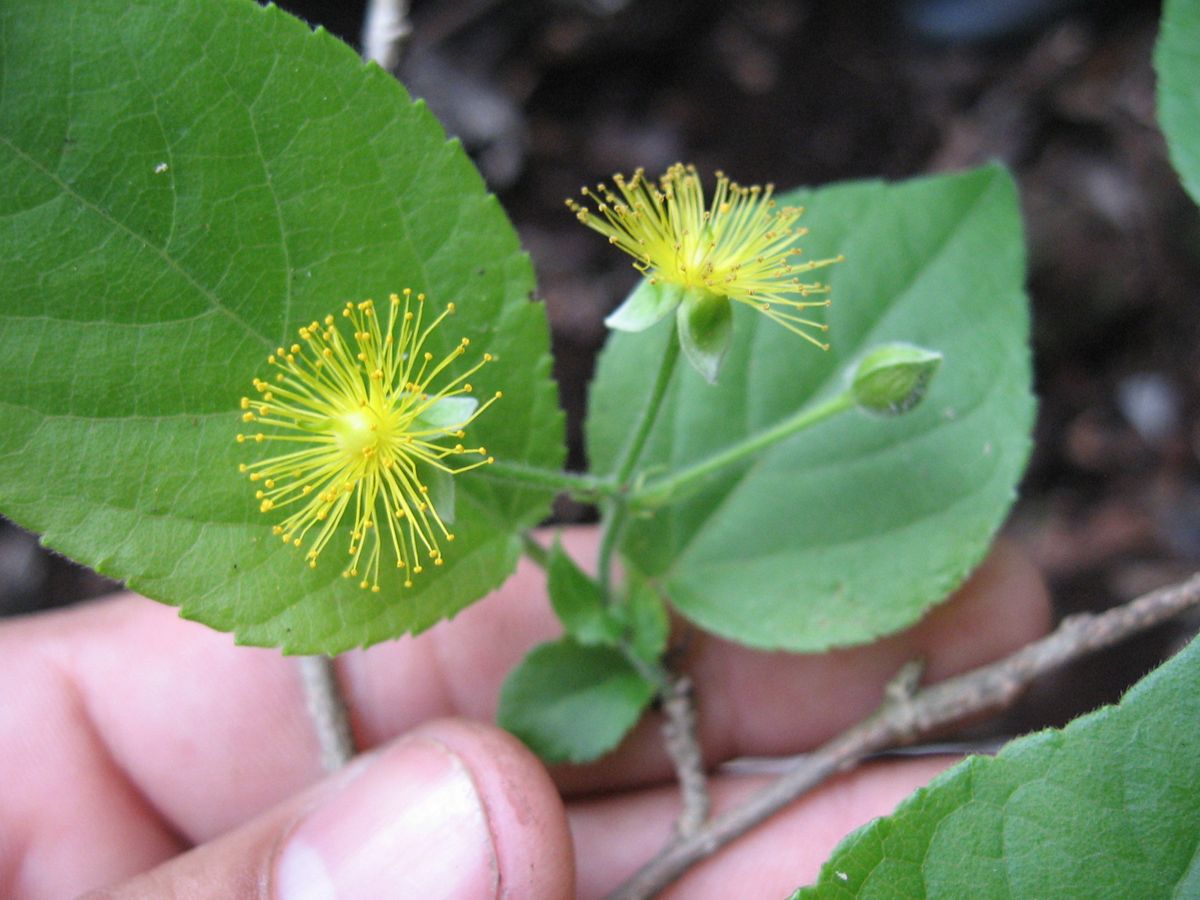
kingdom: Plantae
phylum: Tracheophyta
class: Magnoliopsida
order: Malpighiales
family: Salicaceae
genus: Prockia
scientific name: Prockia crucis
